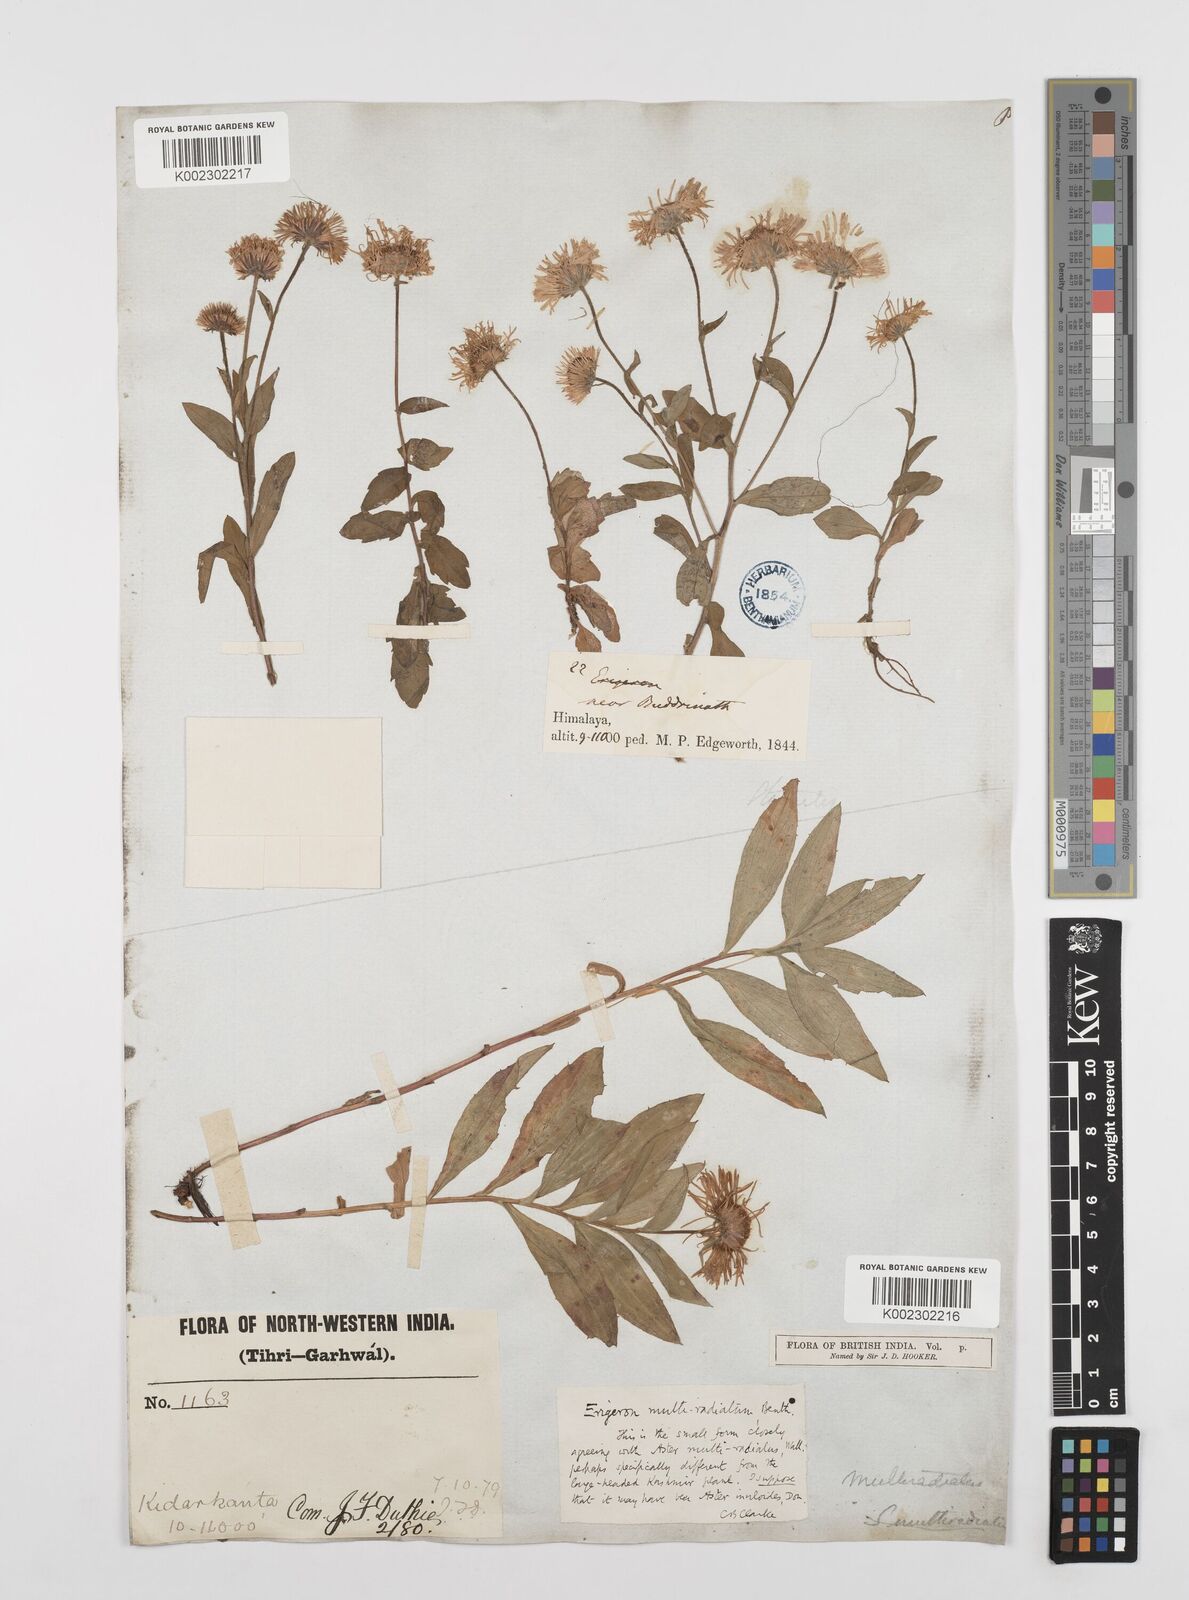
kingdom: Plantae
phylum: Tracheophyta
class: Magnoliopsida
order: Asterales
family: Asteraceae
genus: Erigeron
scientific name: Erigeron multiradiatus
